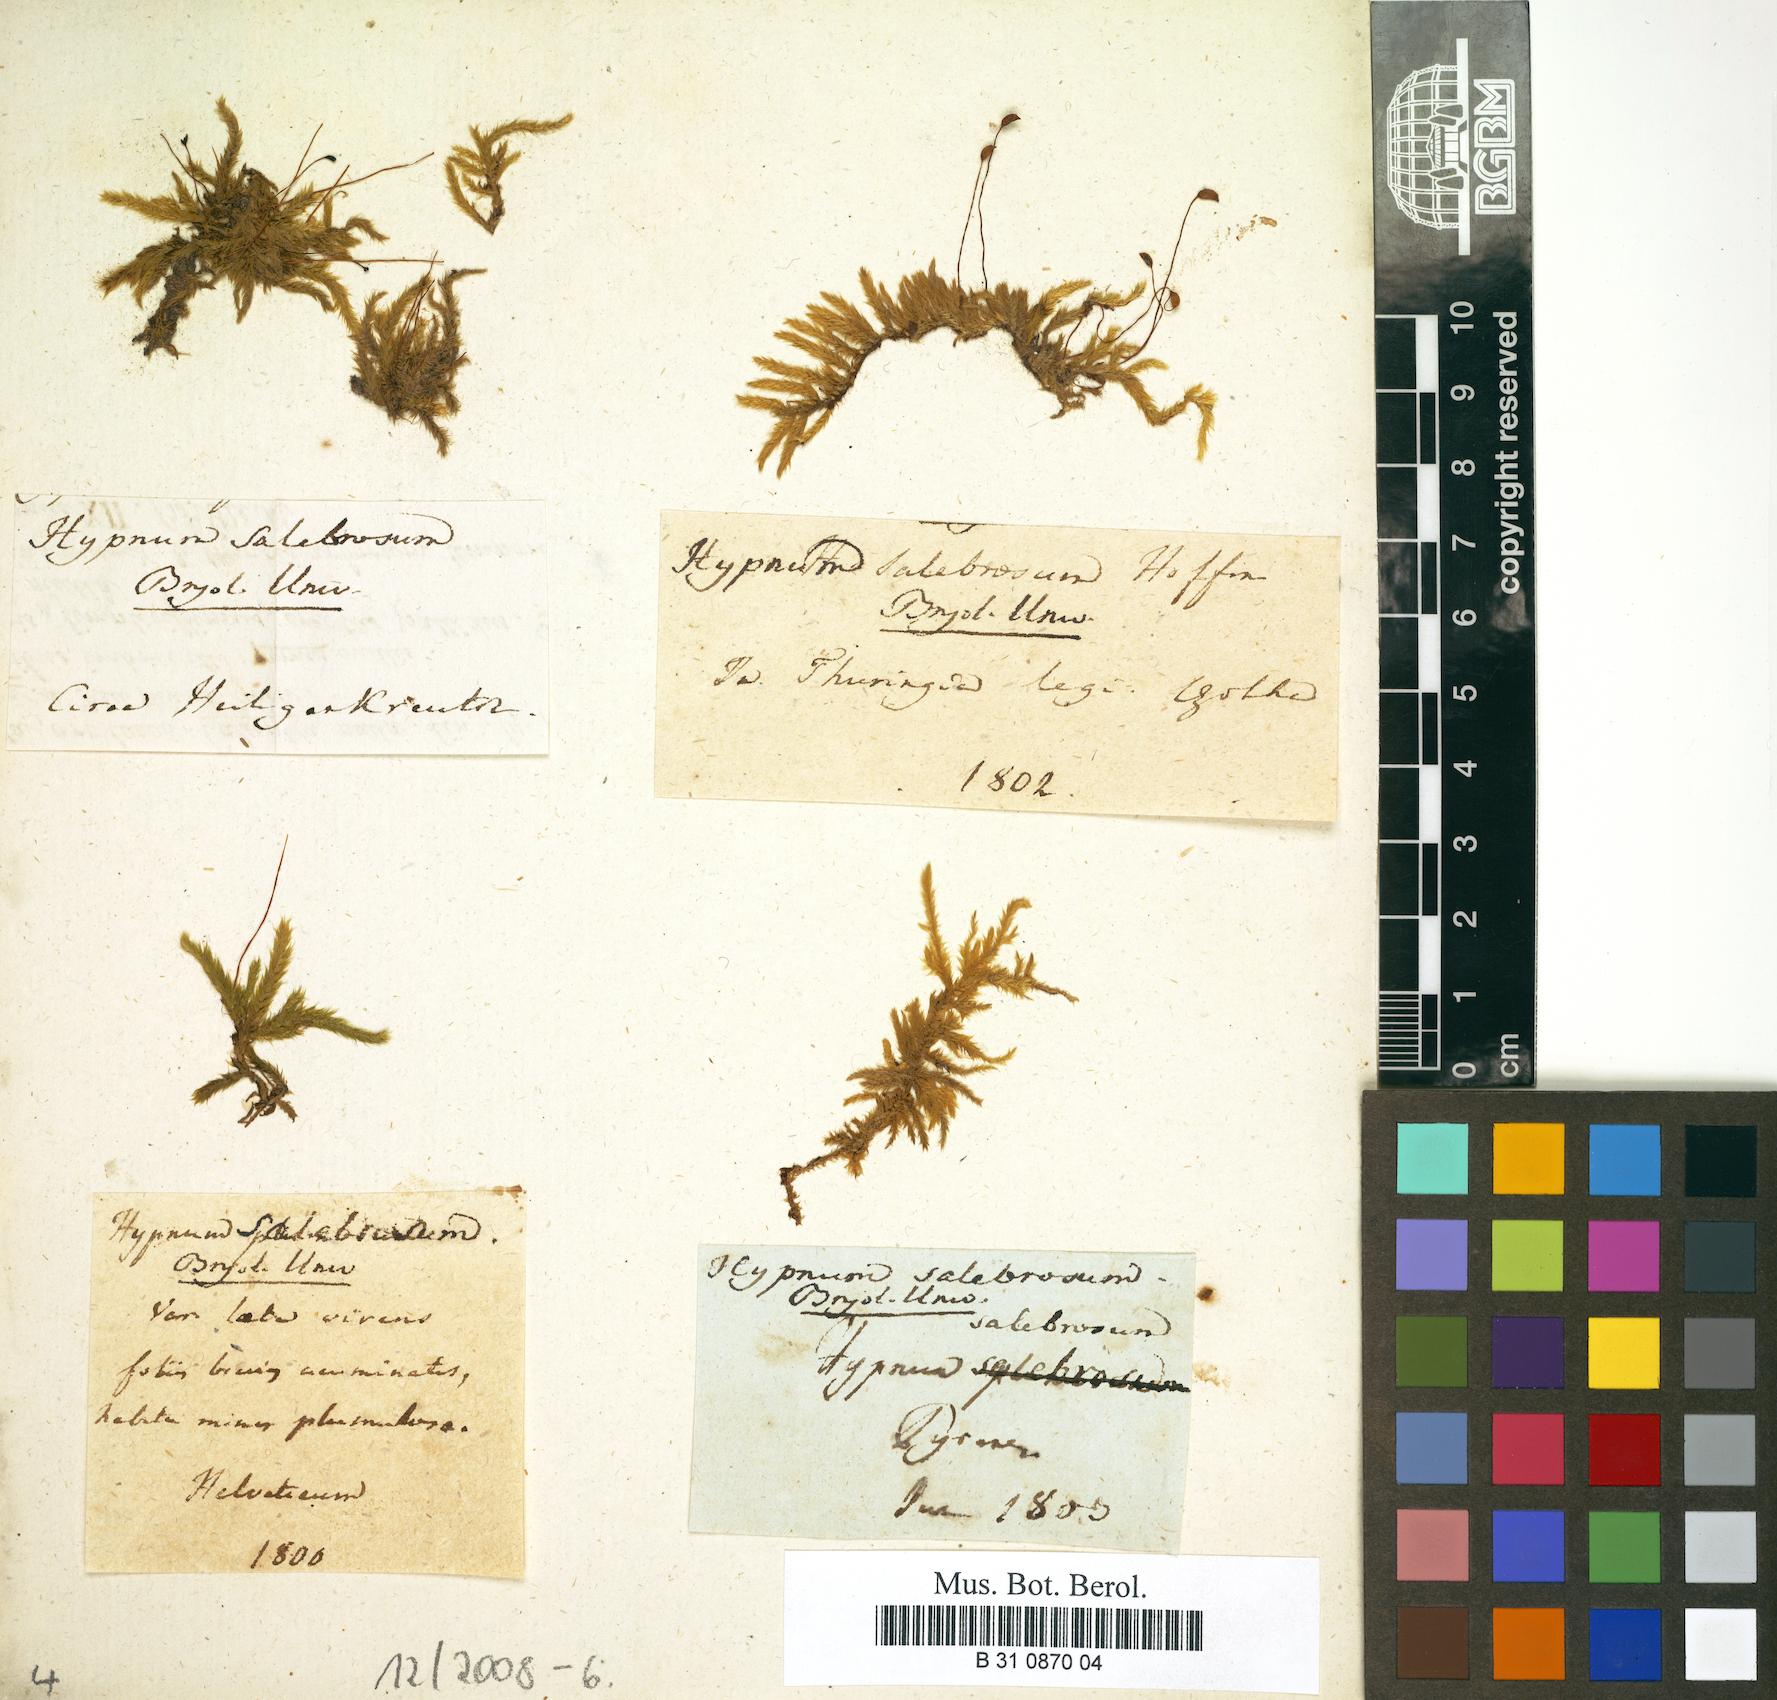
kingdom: Plantae
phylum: Bryophyta
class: Bryopsida
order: Hypnales
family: Brachytheciaceae
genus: Brachythecium
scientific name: Brachythecium salebrosum
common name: Smooth-stalk feather-moss
